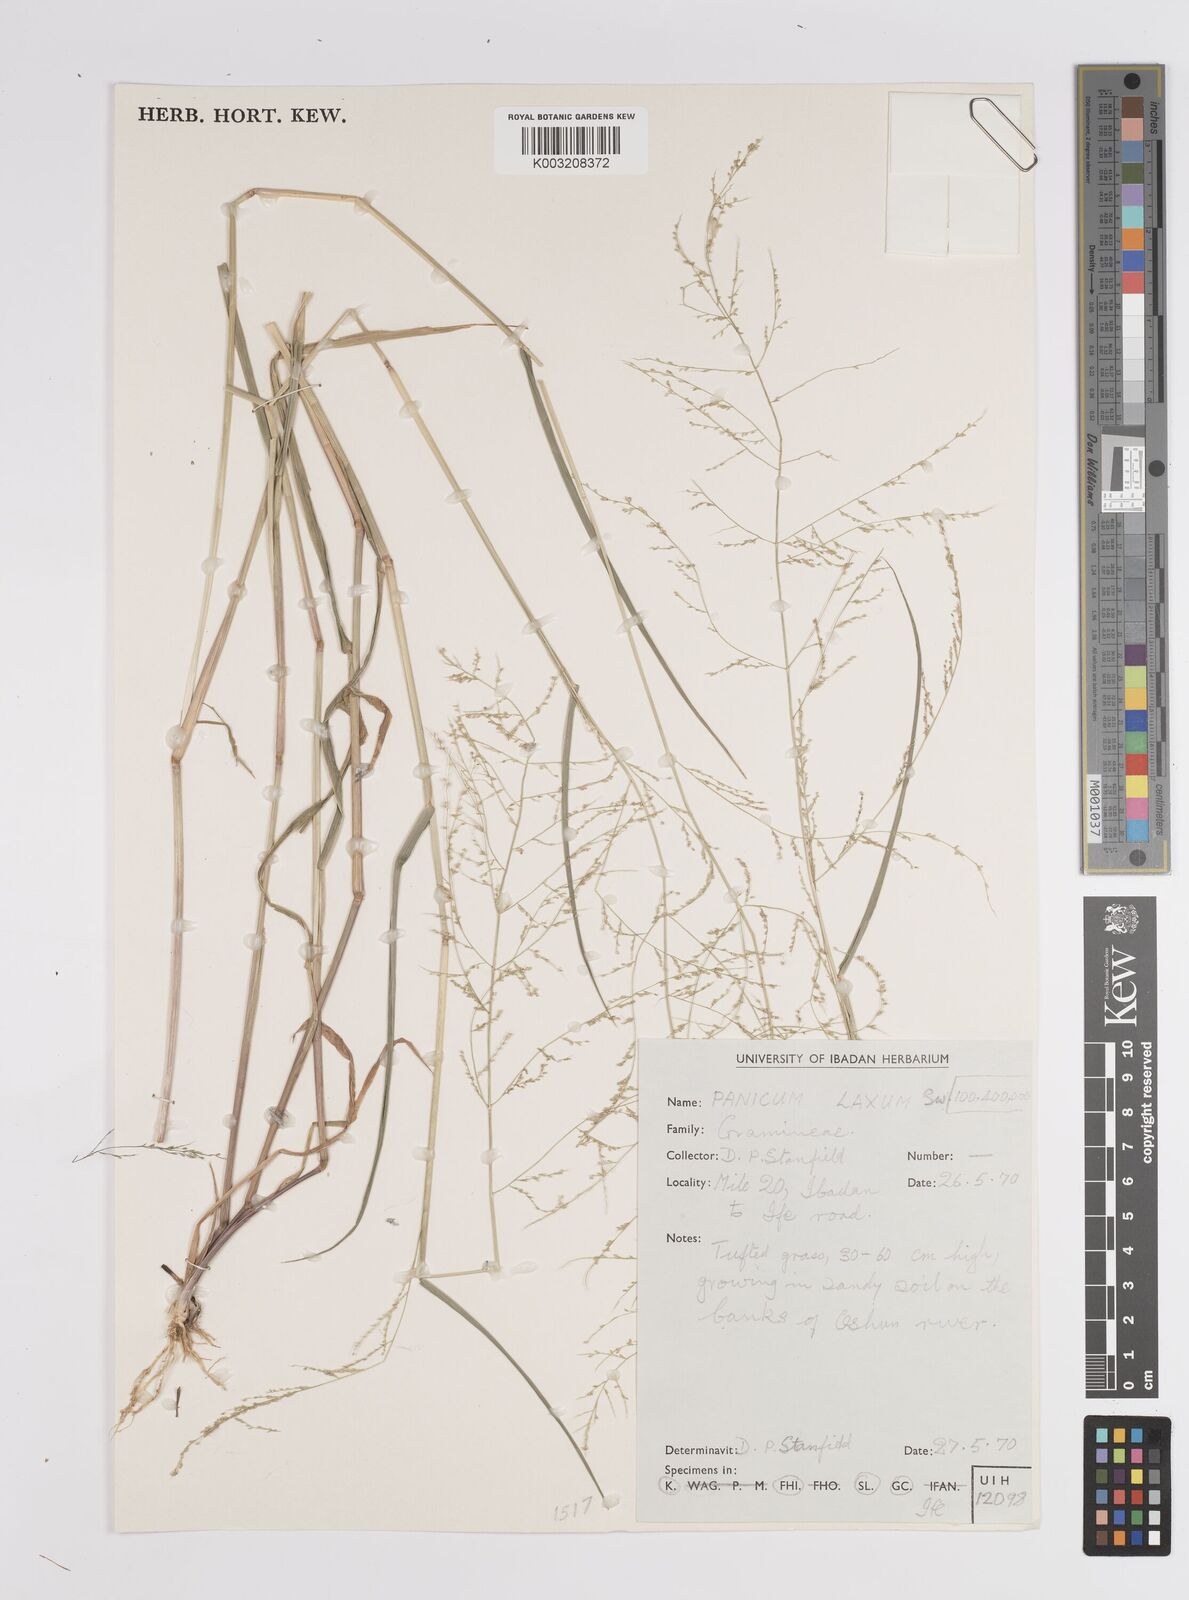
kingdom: Plantae
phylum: Tracheophyta
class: Liliopsida
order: Poales
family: Poaceae
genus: Steinchisma
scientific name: Steinchisma laxum
